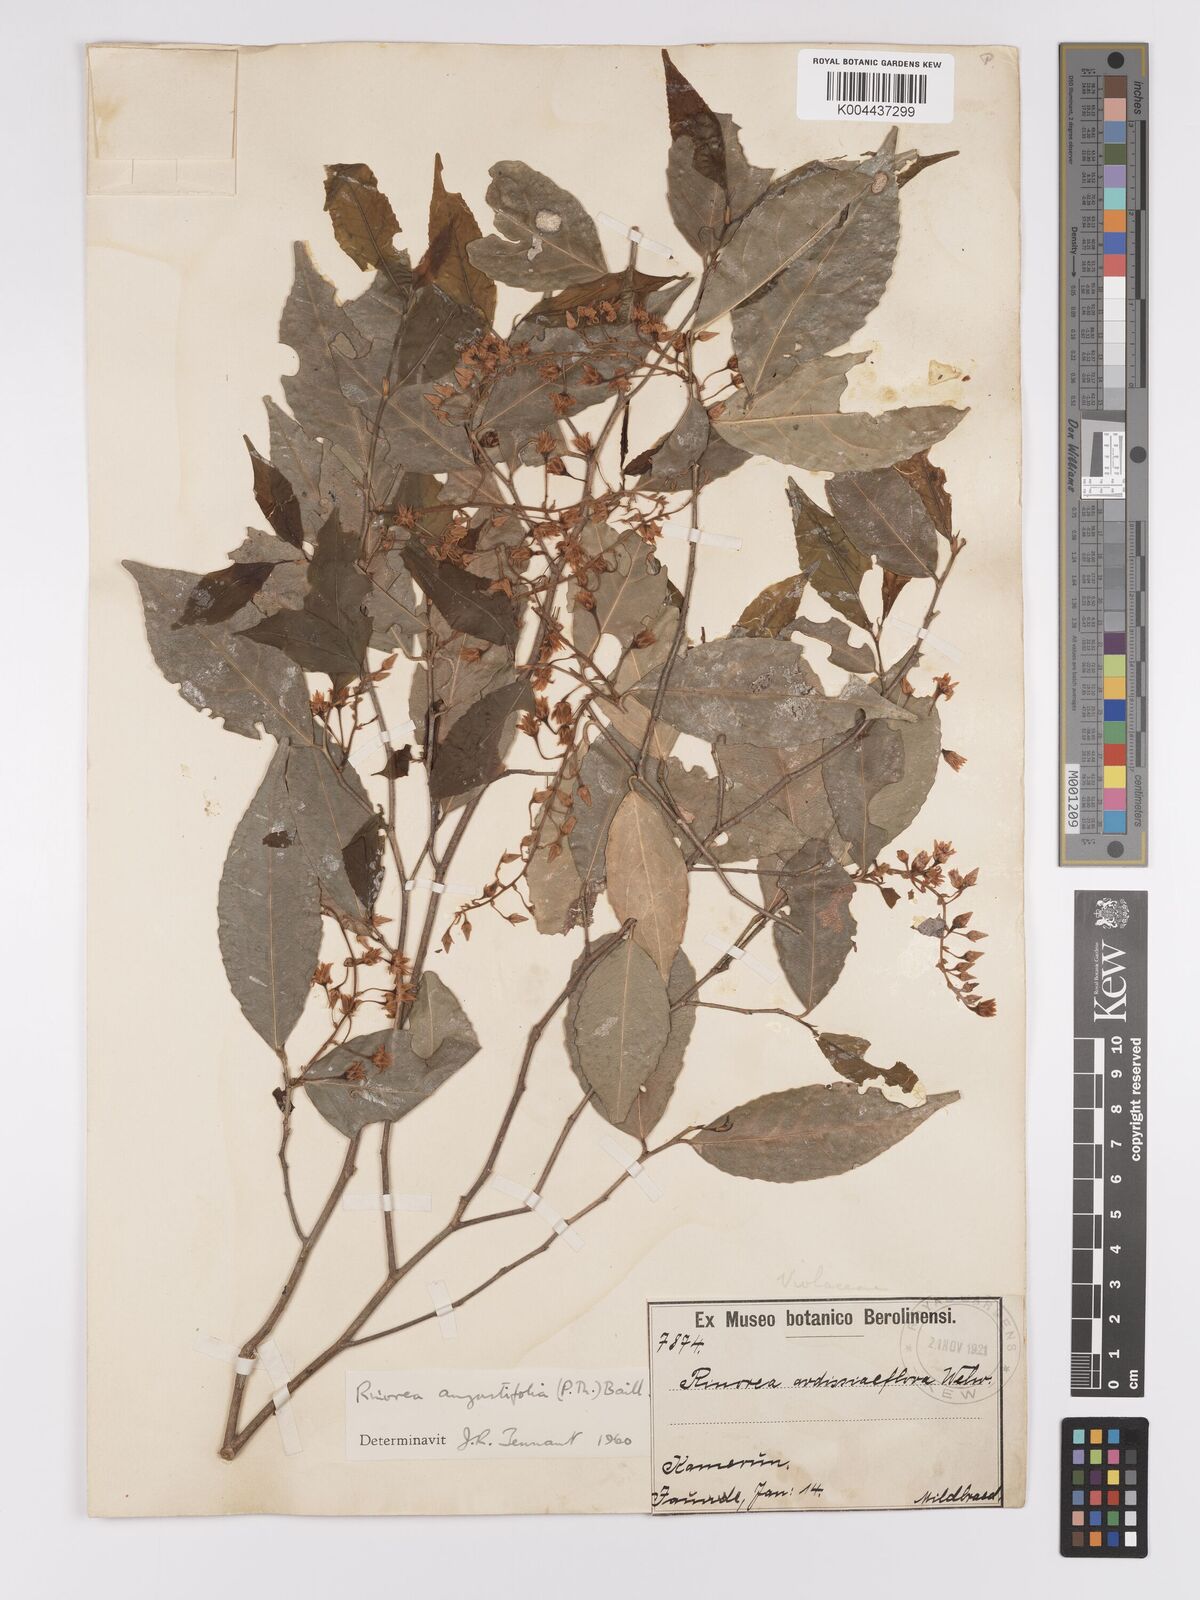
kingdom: Plantae
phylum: Tracheophyta
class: Magnoliopsida
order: Malpighiales
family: Violaceae
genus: Rinorea
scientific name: Rinorea angustifolia
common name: White violet-bush
